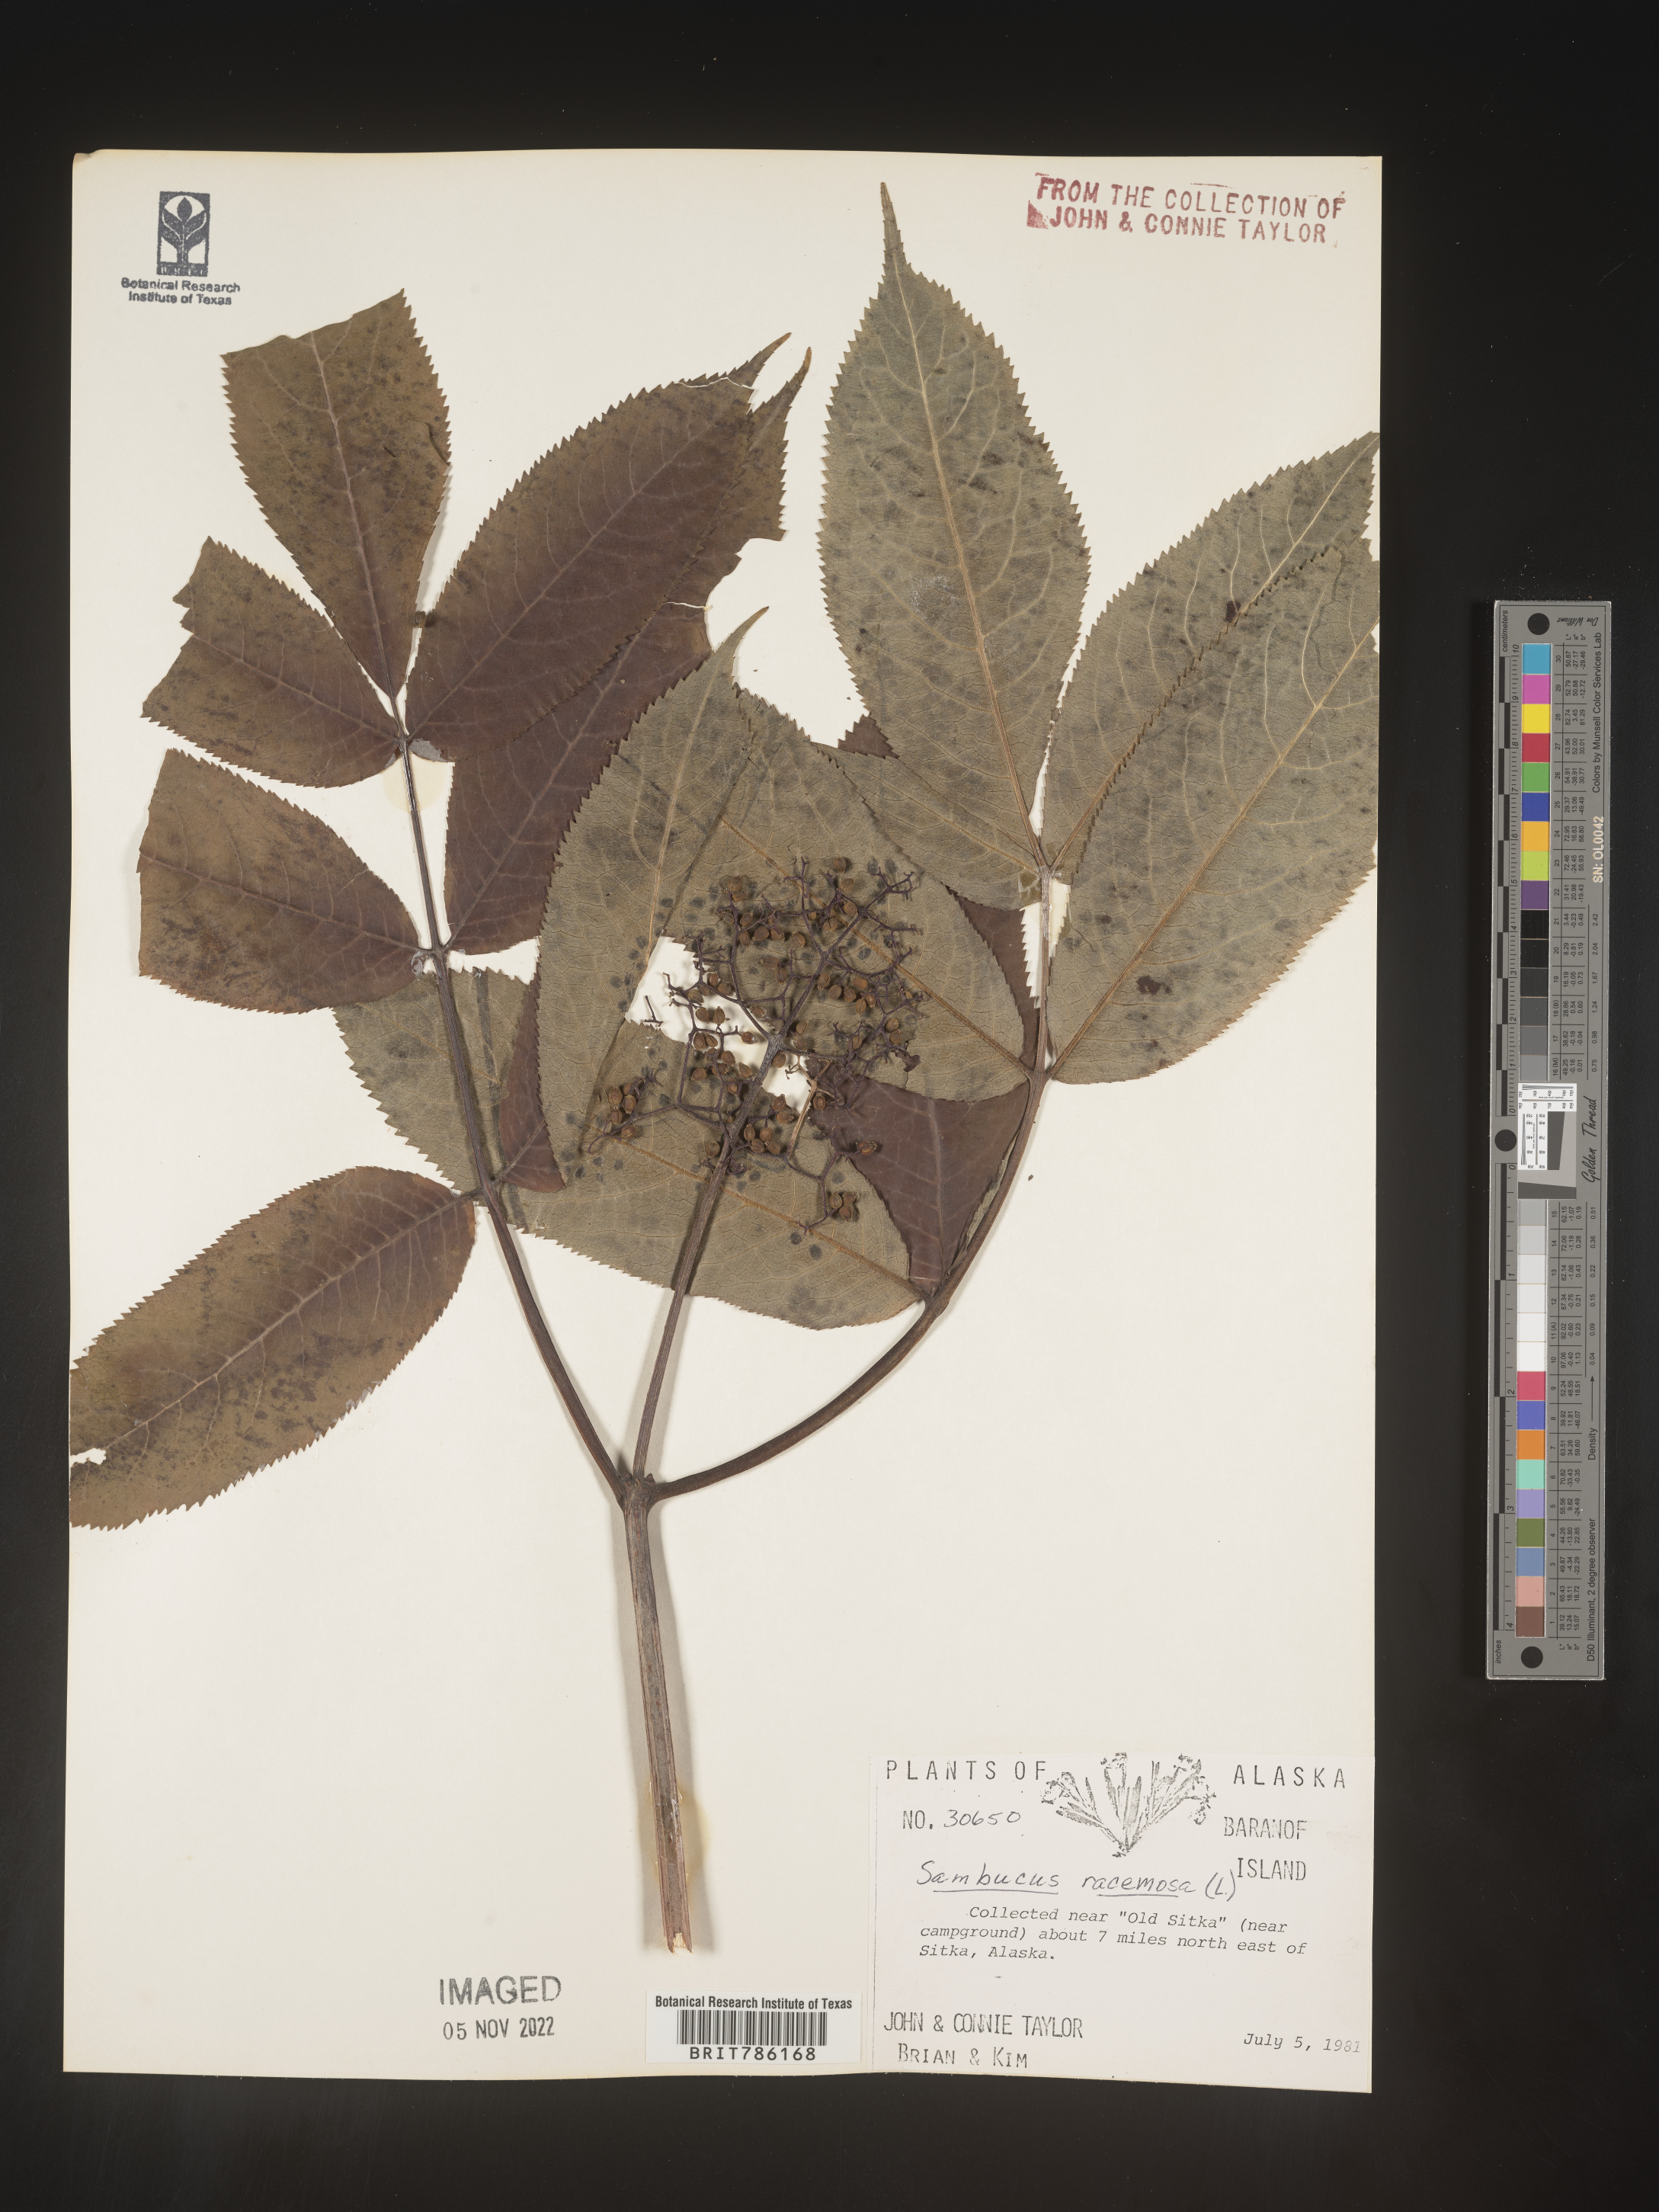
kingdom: Plantae
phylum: Tracheophyta
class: Magnoliopsida
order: Dipsacales
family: Viburnaceae
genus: Sambucus
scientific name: Sambucus
